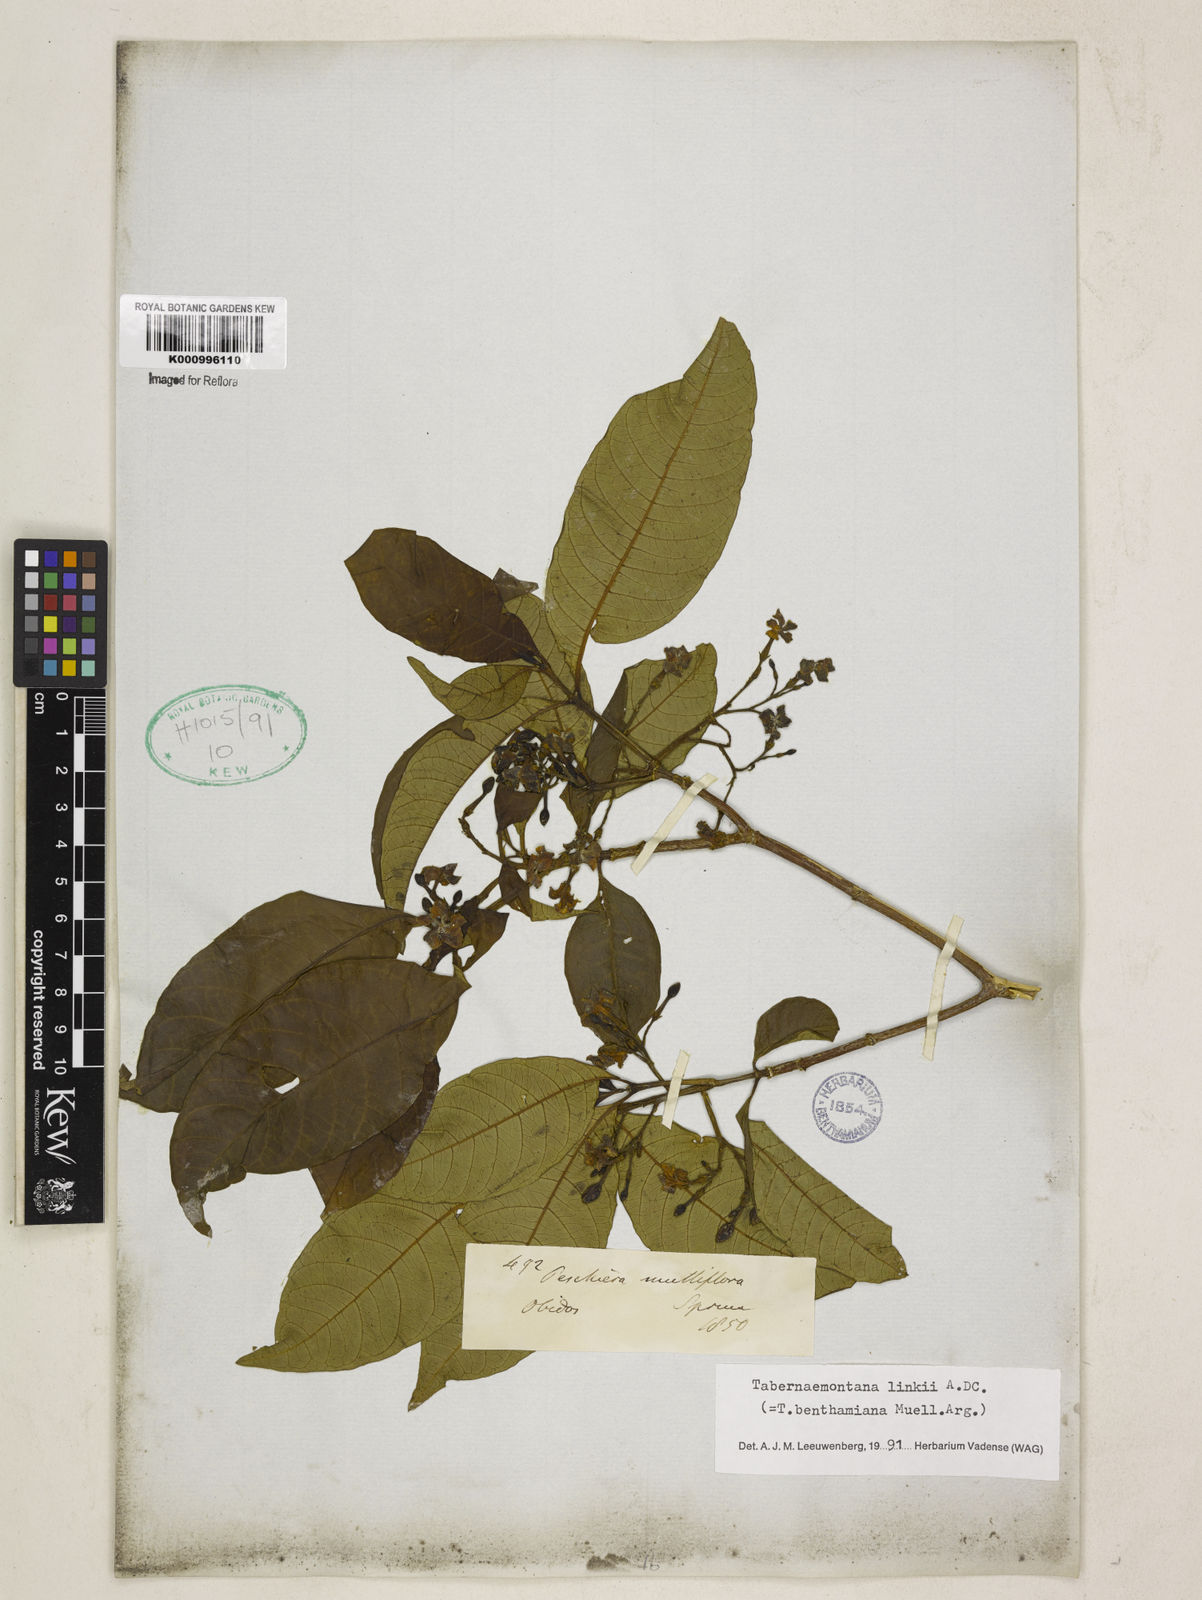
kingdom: Plantae
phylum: Tracheophyta
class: Magnoliopsida
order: Gentianales
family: Apocynaceae
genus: Tabernaemontana
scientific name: Tabernaemontana linkii
